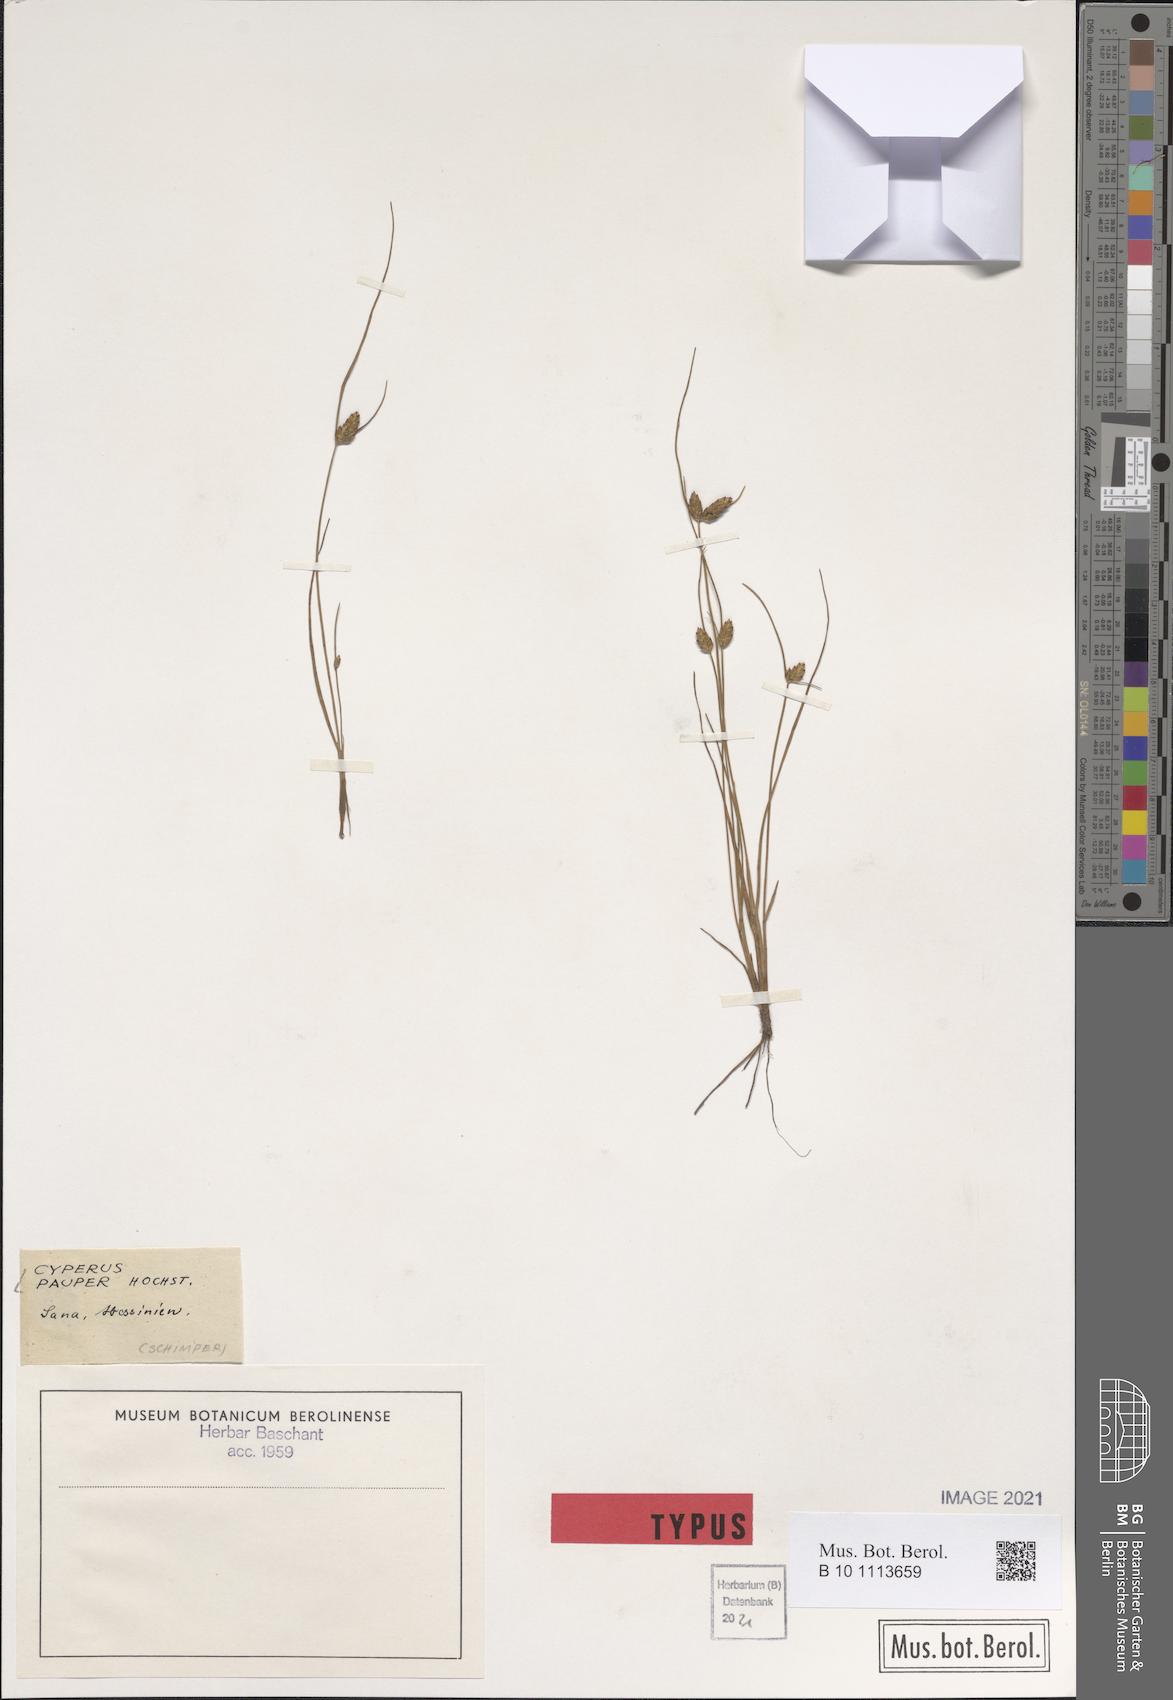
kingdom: Plantae
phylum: Tracheophyta
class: Liliopsida
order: Poales
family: Cyperaceae
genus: Cyperus
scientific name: Cyperus pauper
